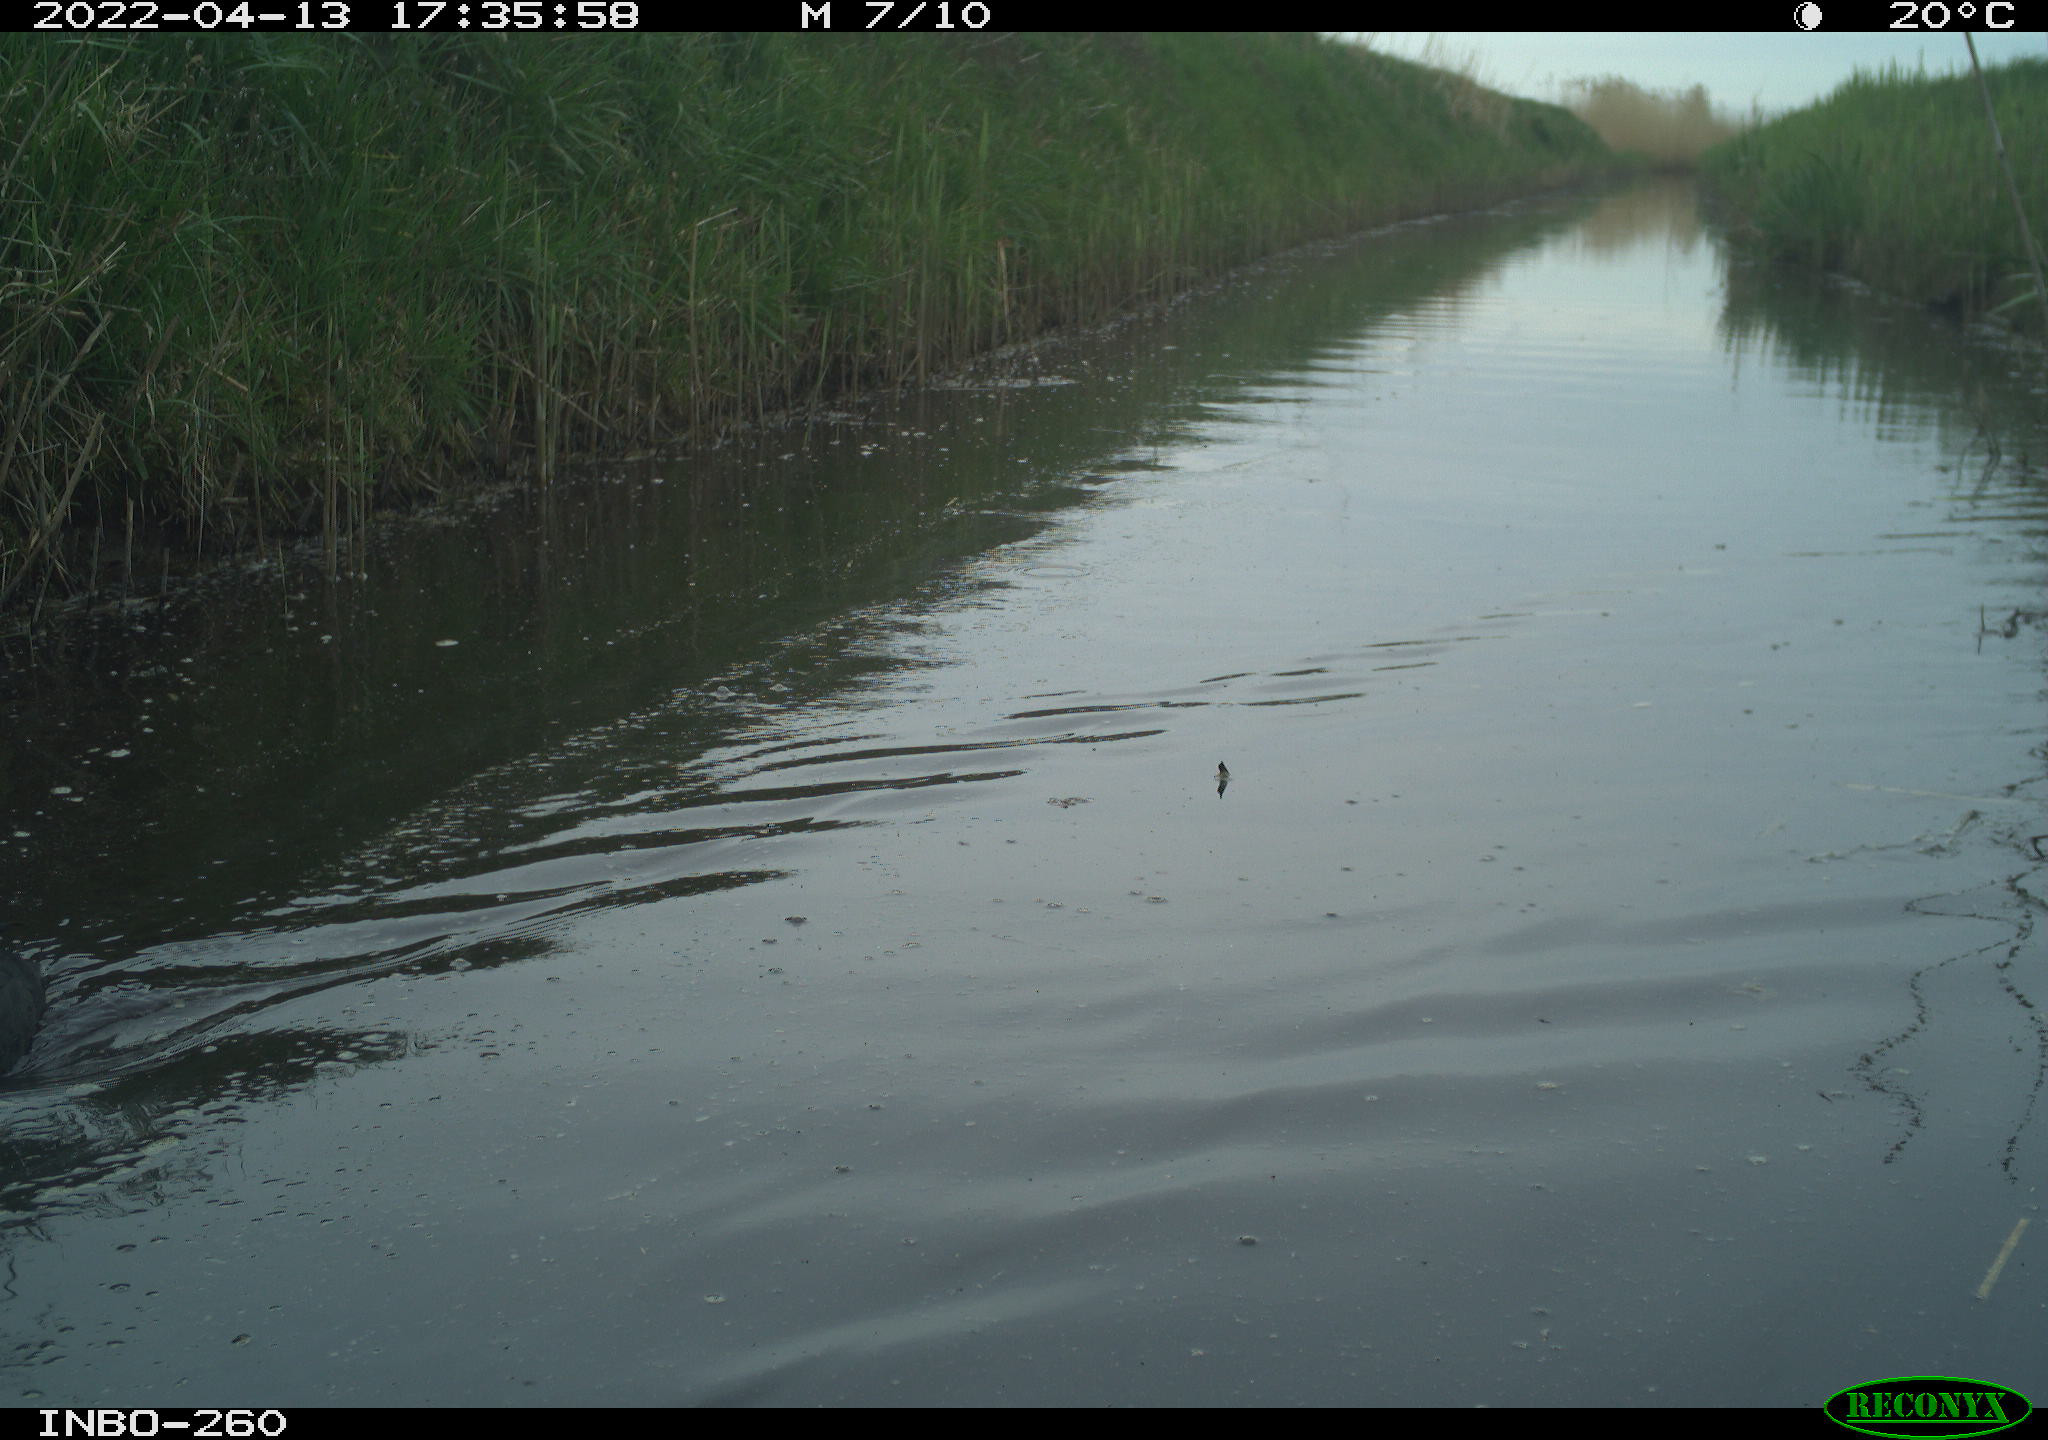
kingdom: Animalia
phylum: Chordata
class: Aves
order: Gruiformes
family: Rallidae
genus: Fulica
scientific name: Fulica atra
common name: Eurasian coot
